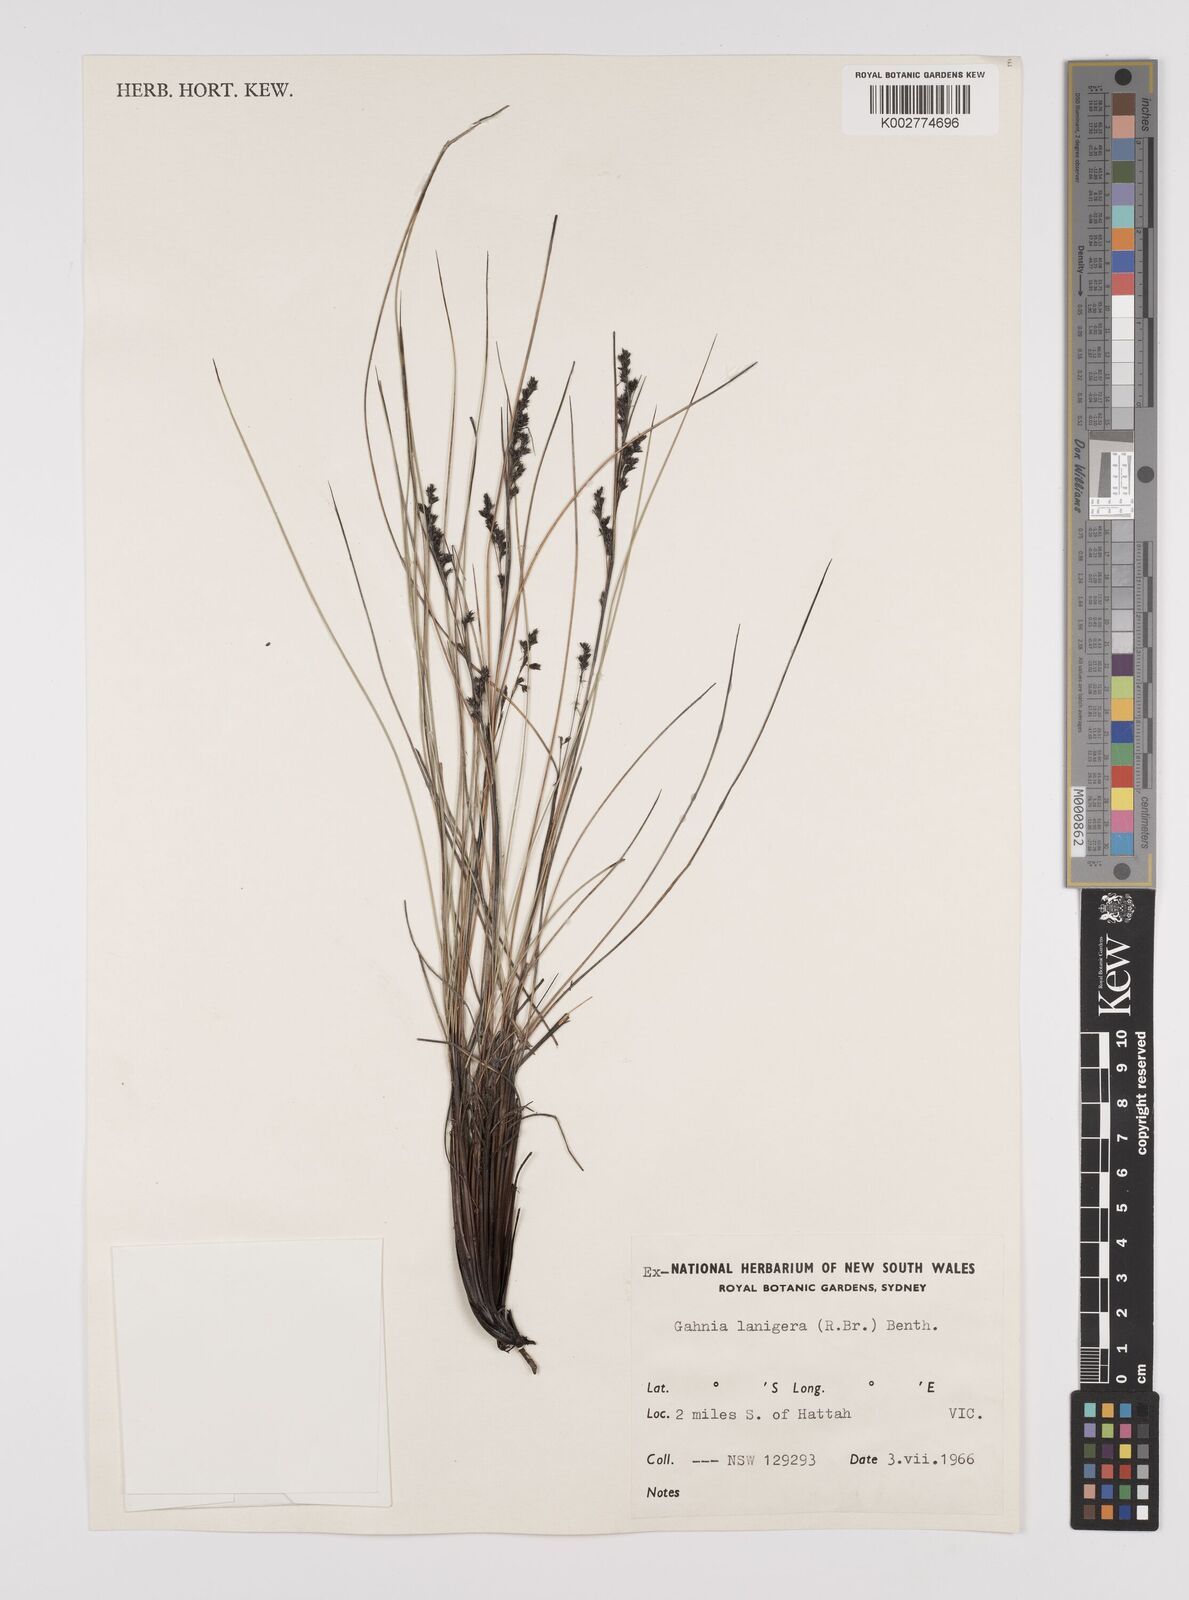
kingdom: Plantae
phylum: Tracheophyta
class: Liliopsida
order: Poales
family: Cyperaceae
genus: Gahnia
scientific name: Gahnia lanigera
